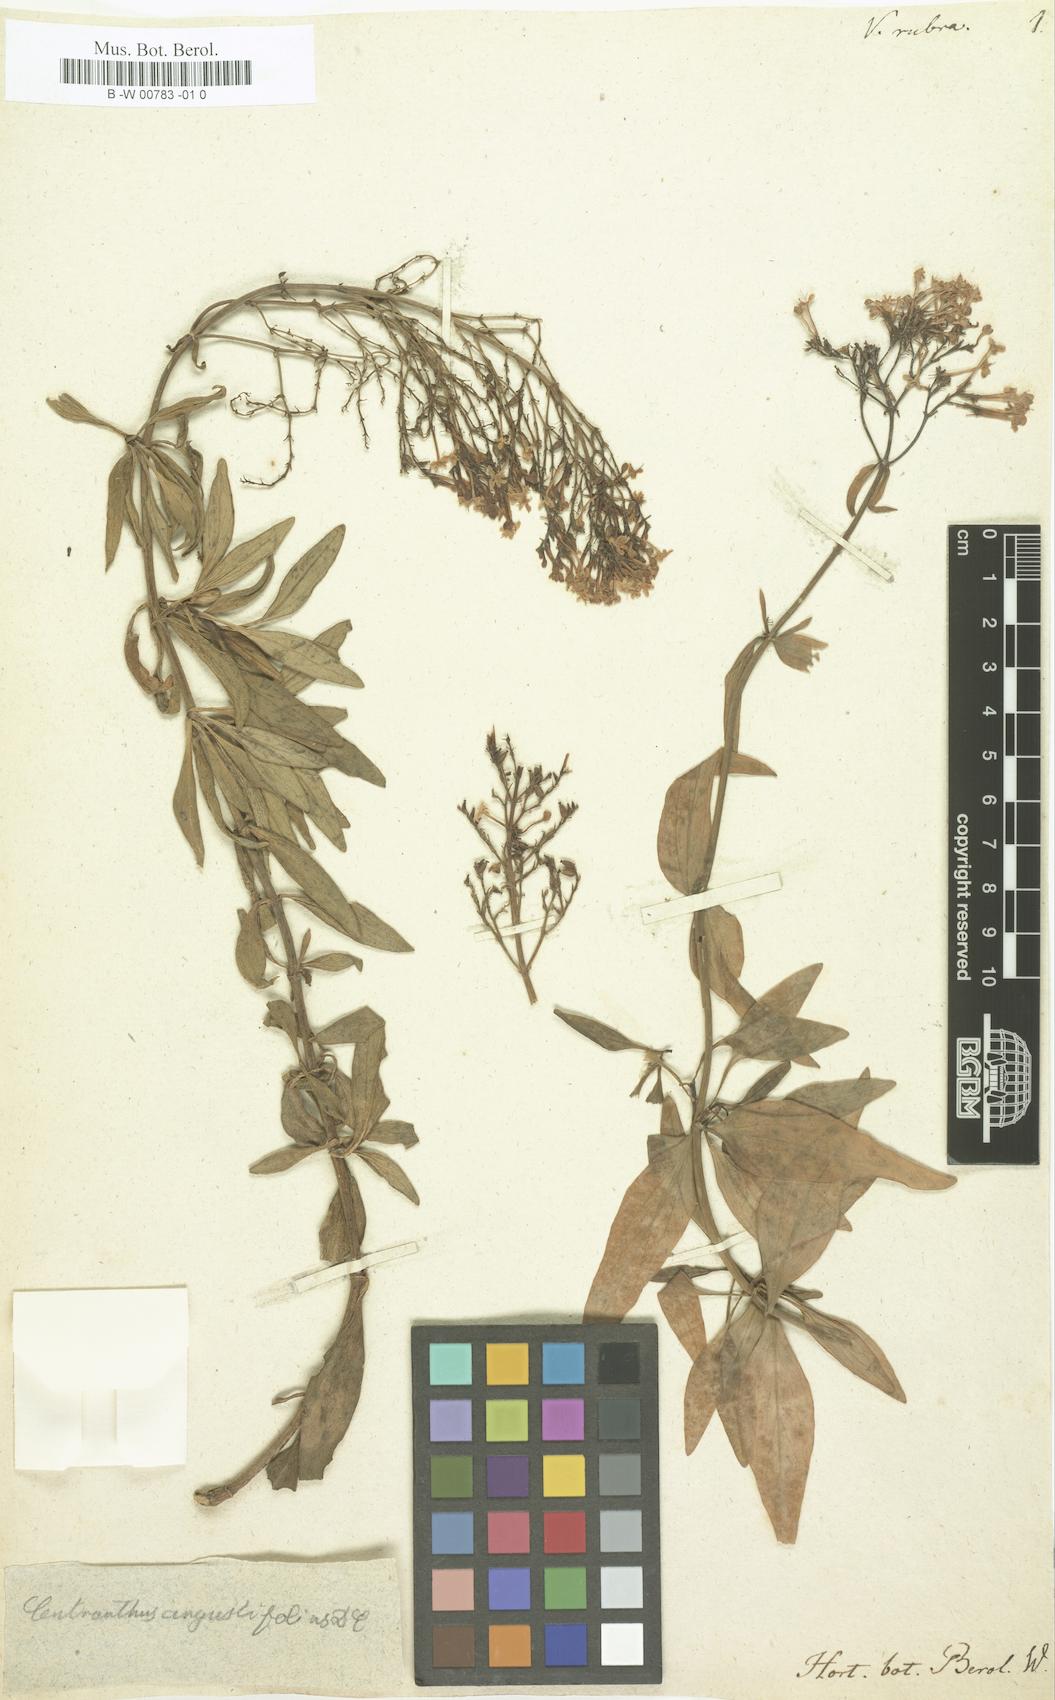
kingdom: Plantae
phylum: Tracheophyta
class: Magnoliopsida
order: Dipsacales
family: Caprifoliaceae
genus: Centranthus
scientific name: Centranthus ruber
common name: Red valerian
